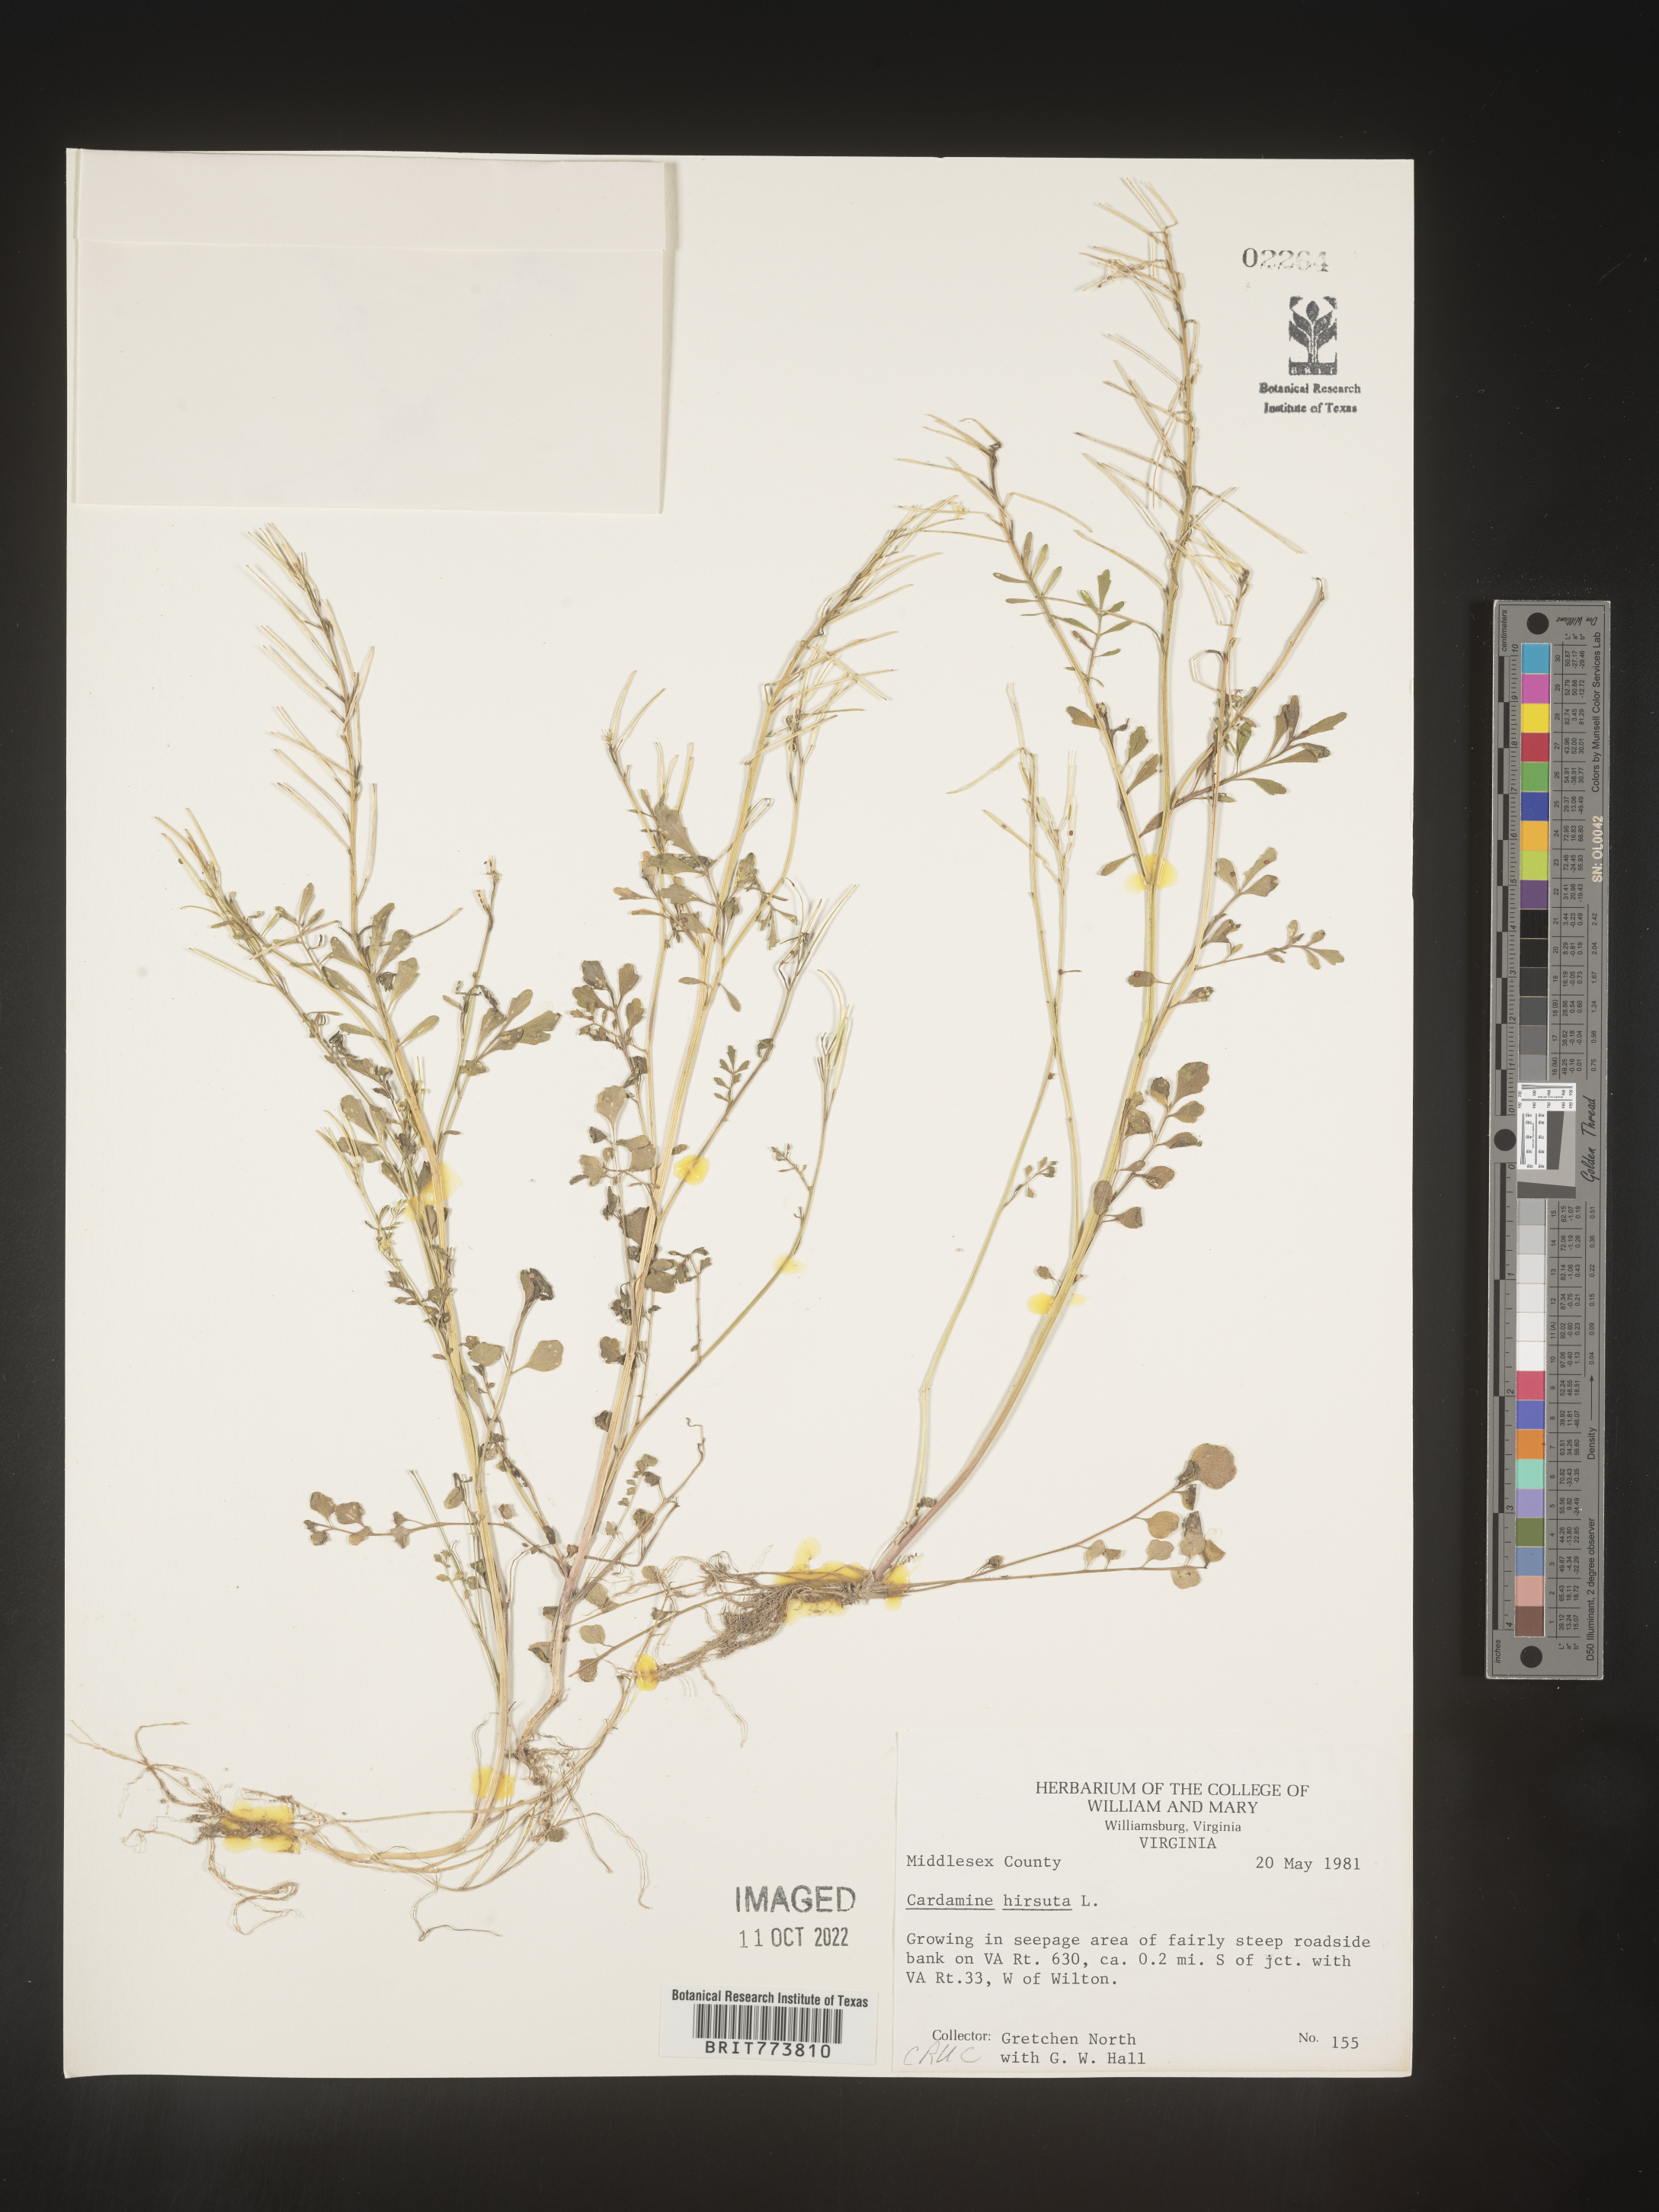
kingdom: Plantae
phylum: Tracheophyta
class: Magnoliopsida
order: Brassicales
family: Brassicaceae
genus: Cardamine
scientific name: Cardamine hirsuta
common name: Hairy bittercress
